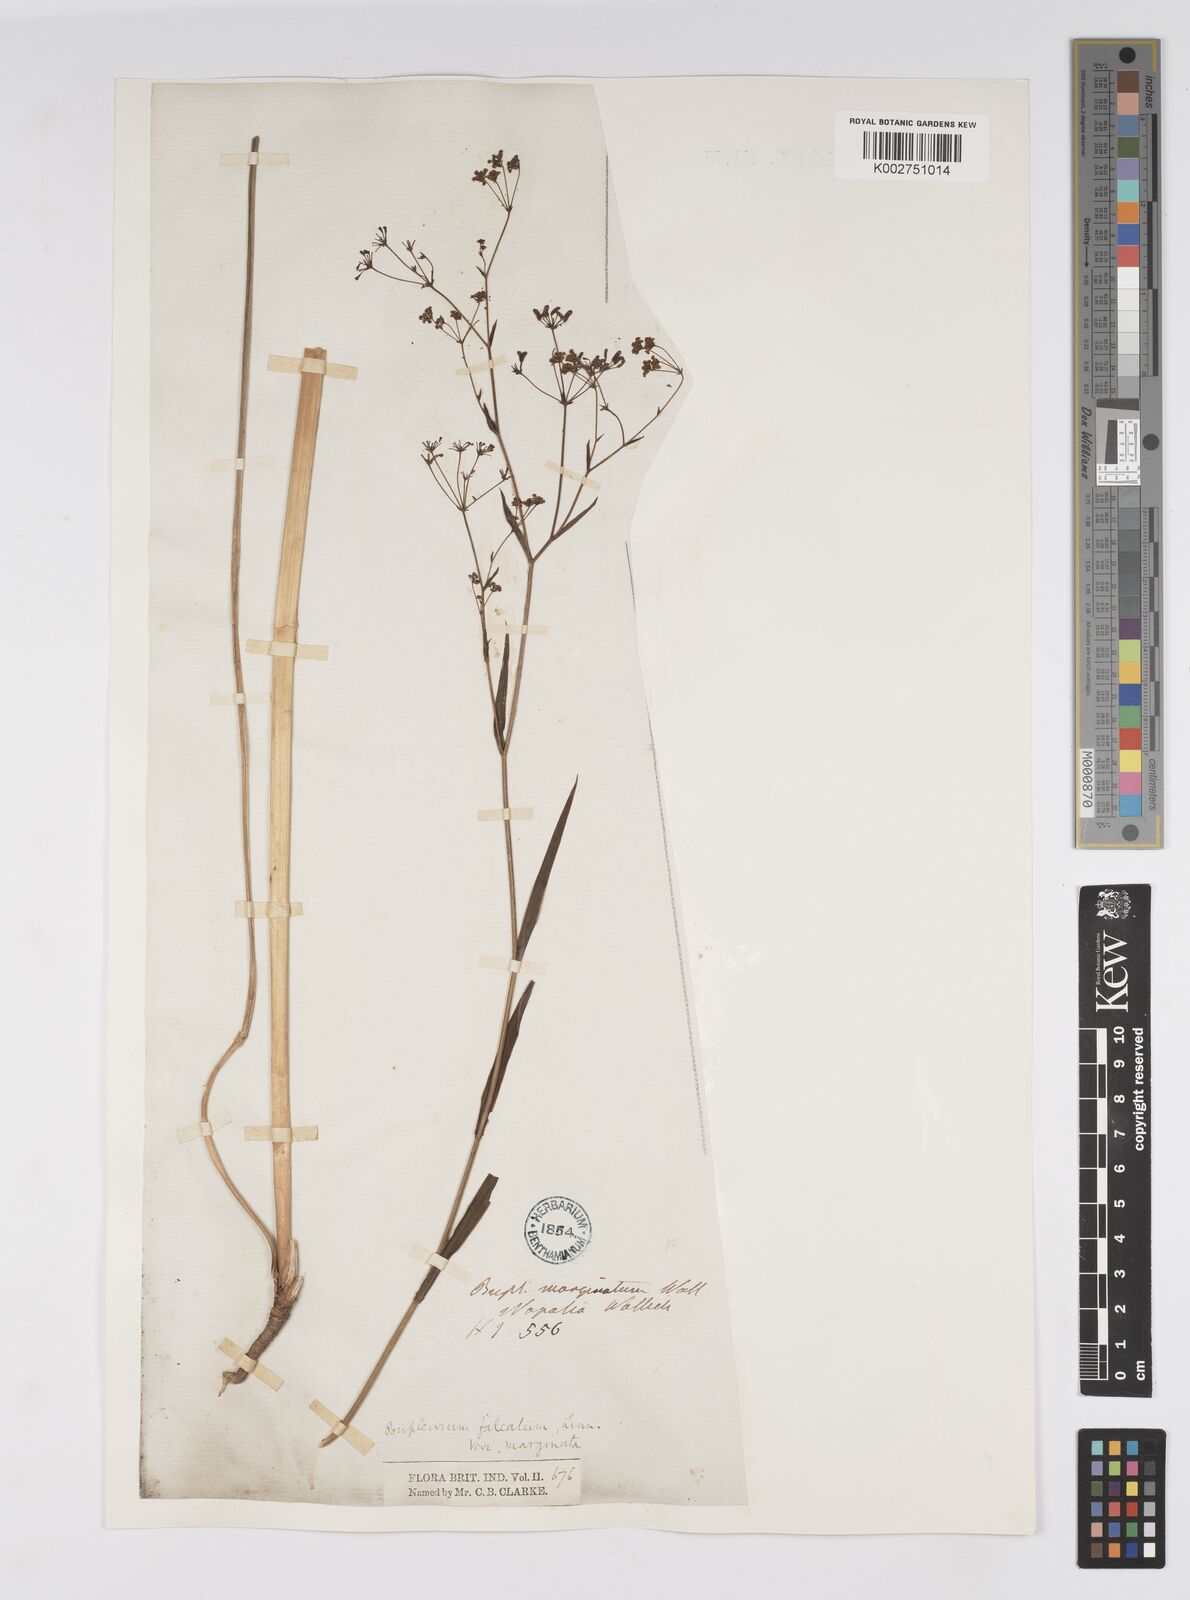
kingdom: Plantae
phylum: Tracheophyta
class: Magnoliopsida
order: Apiales
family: Apiaceae
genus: Bupleurum
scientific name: Bupleurum falcatum
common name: Sickle-leaved hare's-ear
